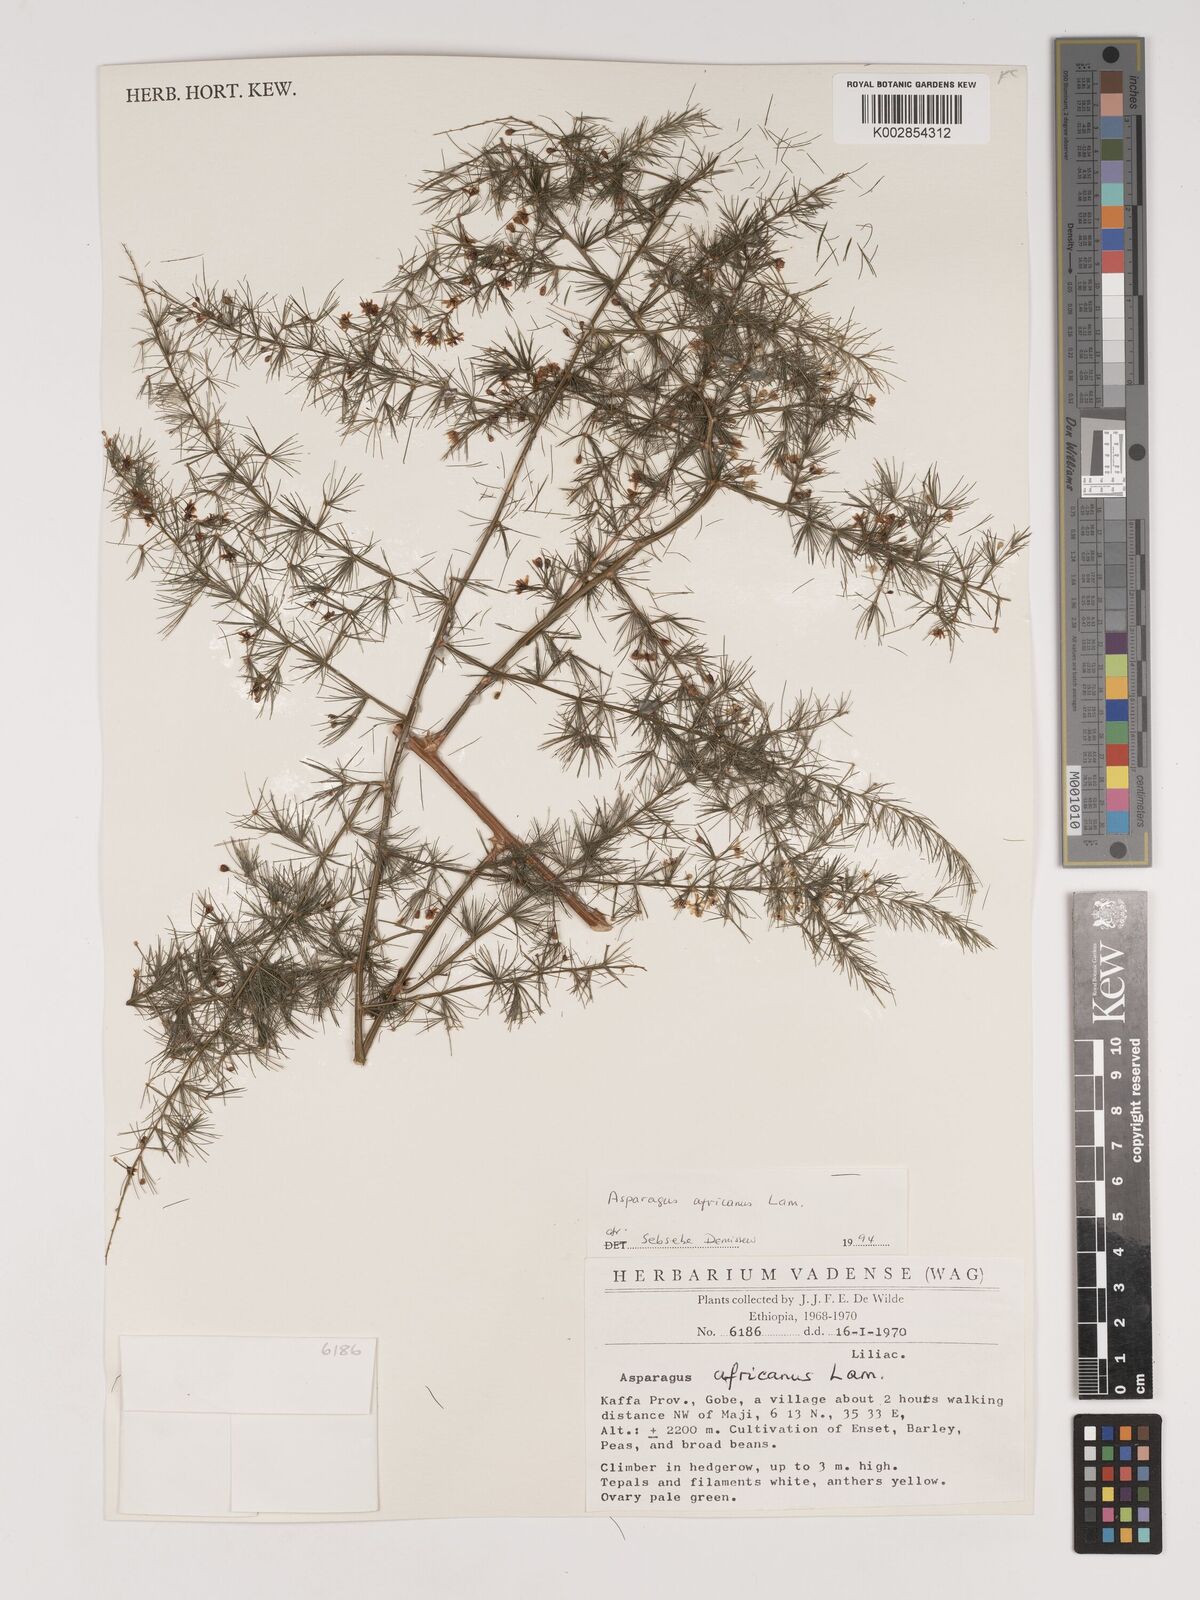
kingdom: Plantae
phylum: Tracheophyta
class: Liliopsida
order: Asparagales
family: Asparagaceae
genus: Asparagus
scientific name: Asparagus africanus
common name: Asparagus-fern
